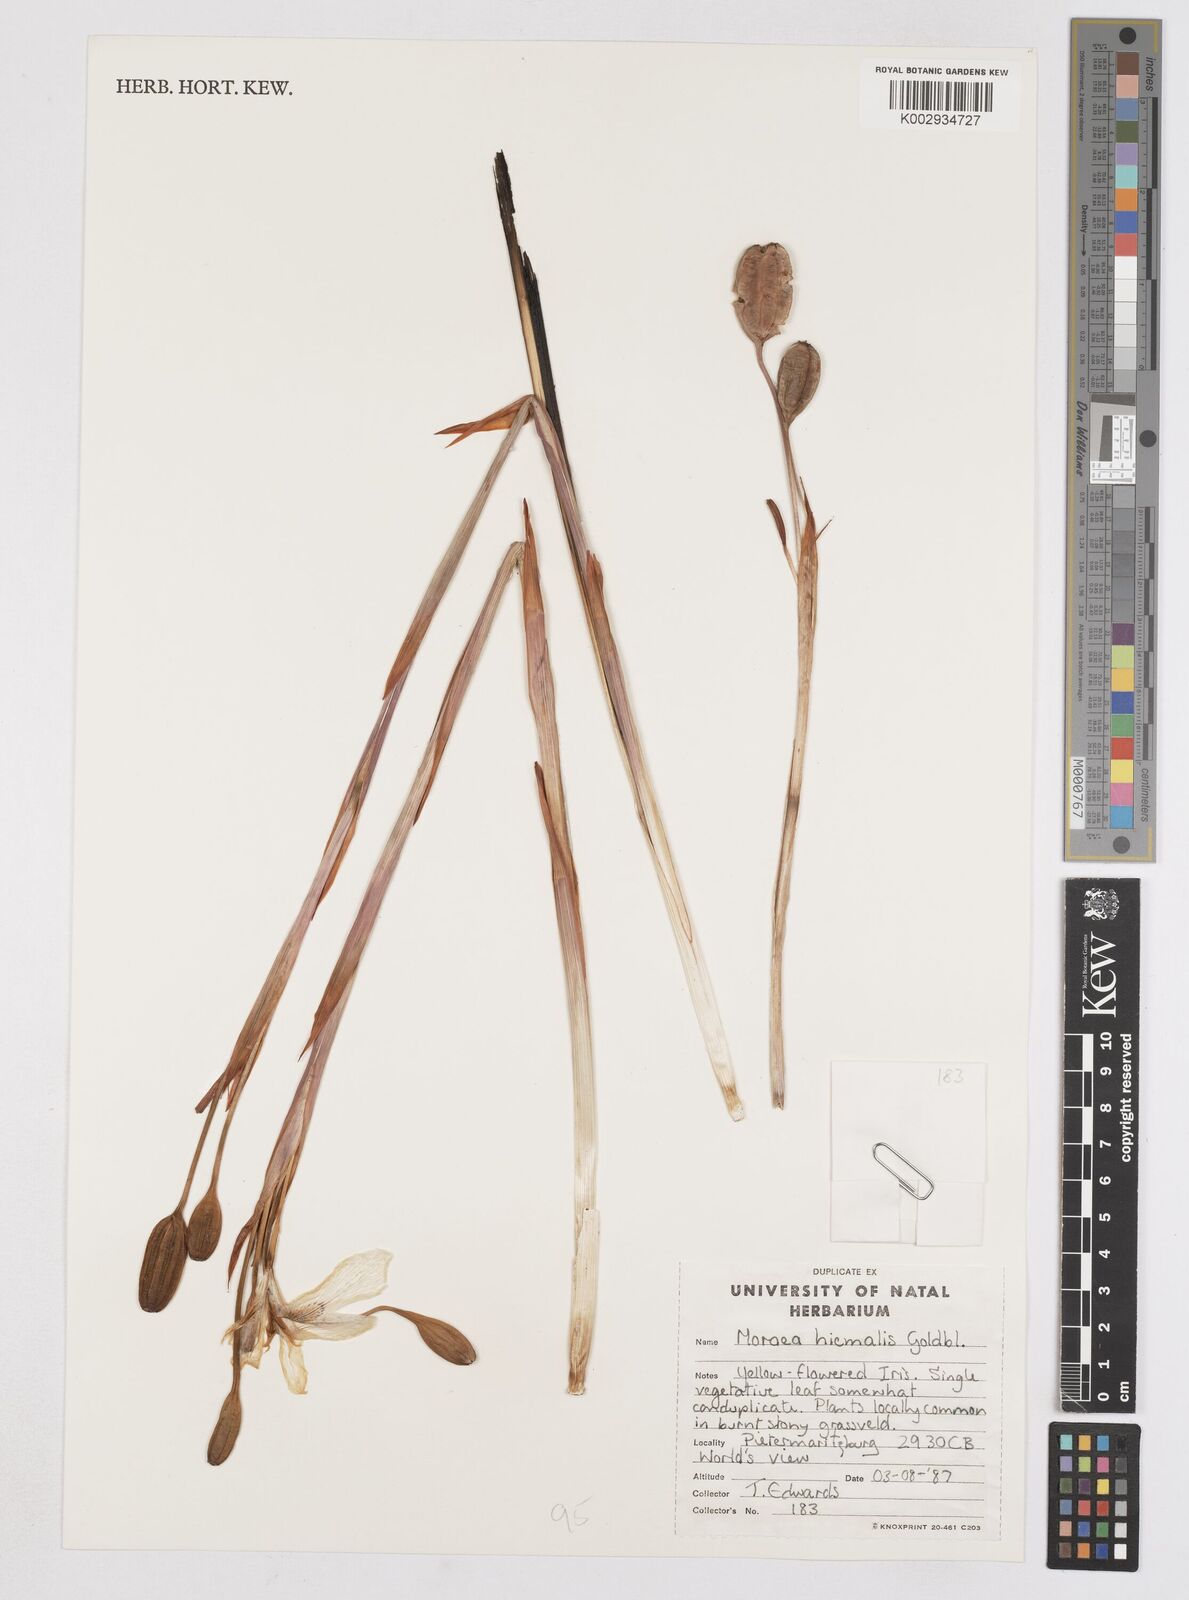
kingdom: Plantae
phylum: Tracheophyta
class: Liliopsida
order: Asparagales
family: Iridaceae
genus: Moraea
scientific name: Moraea hiemalis
